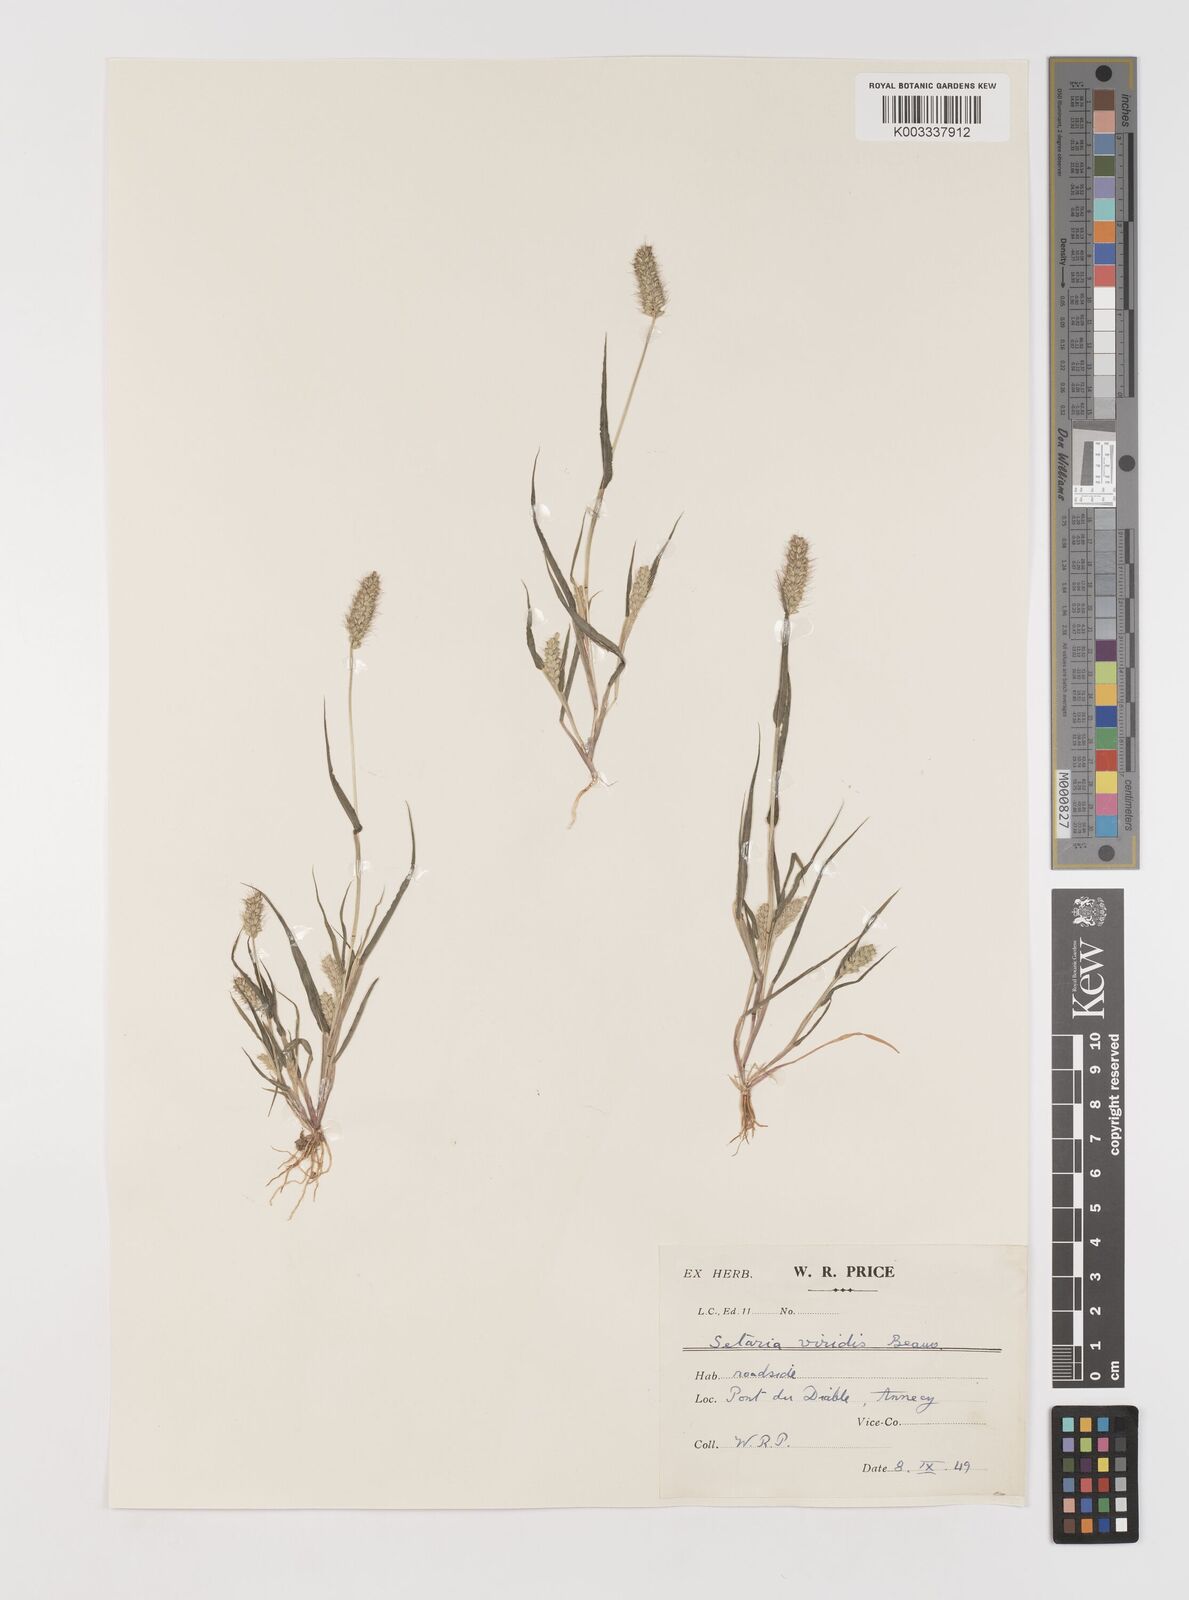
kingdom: Plantae
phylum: Tracheophyta
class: Liliopsida
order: Poales
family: Poaceae
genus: Setaria
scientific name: Setaria viridis
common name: Green bristlegrass
